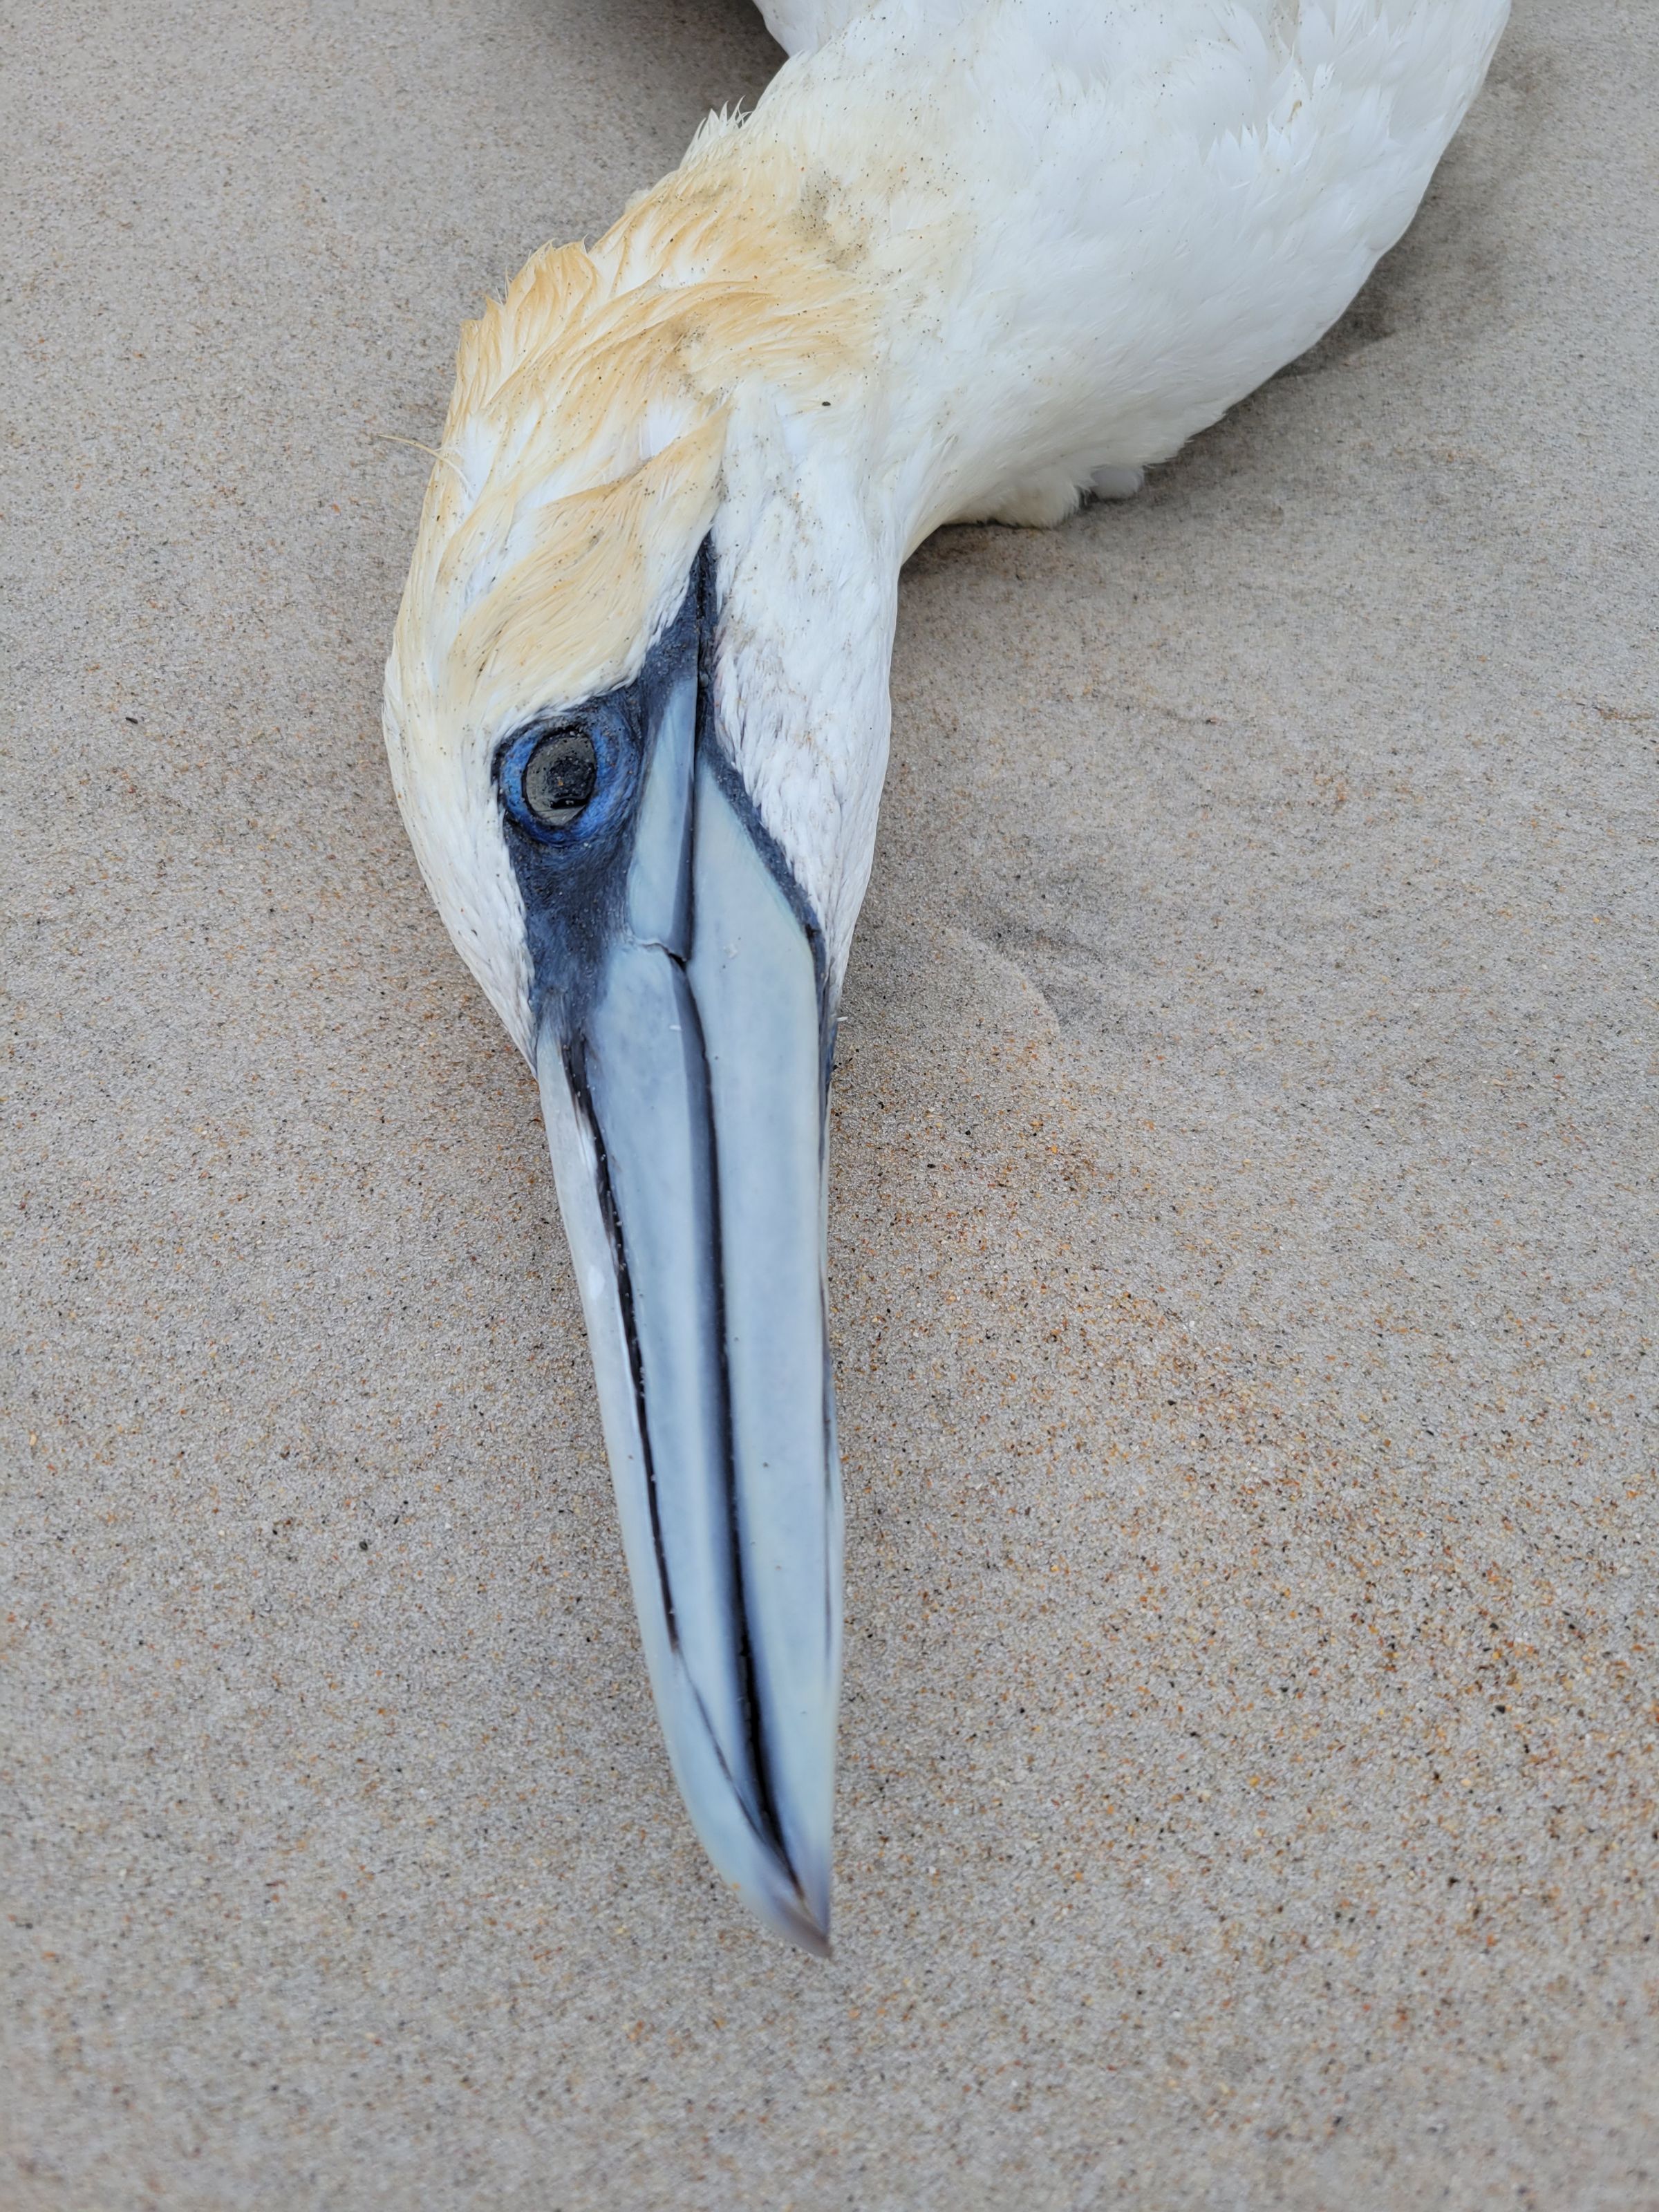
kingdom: Animalia
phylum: Chordata
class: Aves
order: Suliformes
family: Sulidae
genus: Sula
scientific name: Sula
